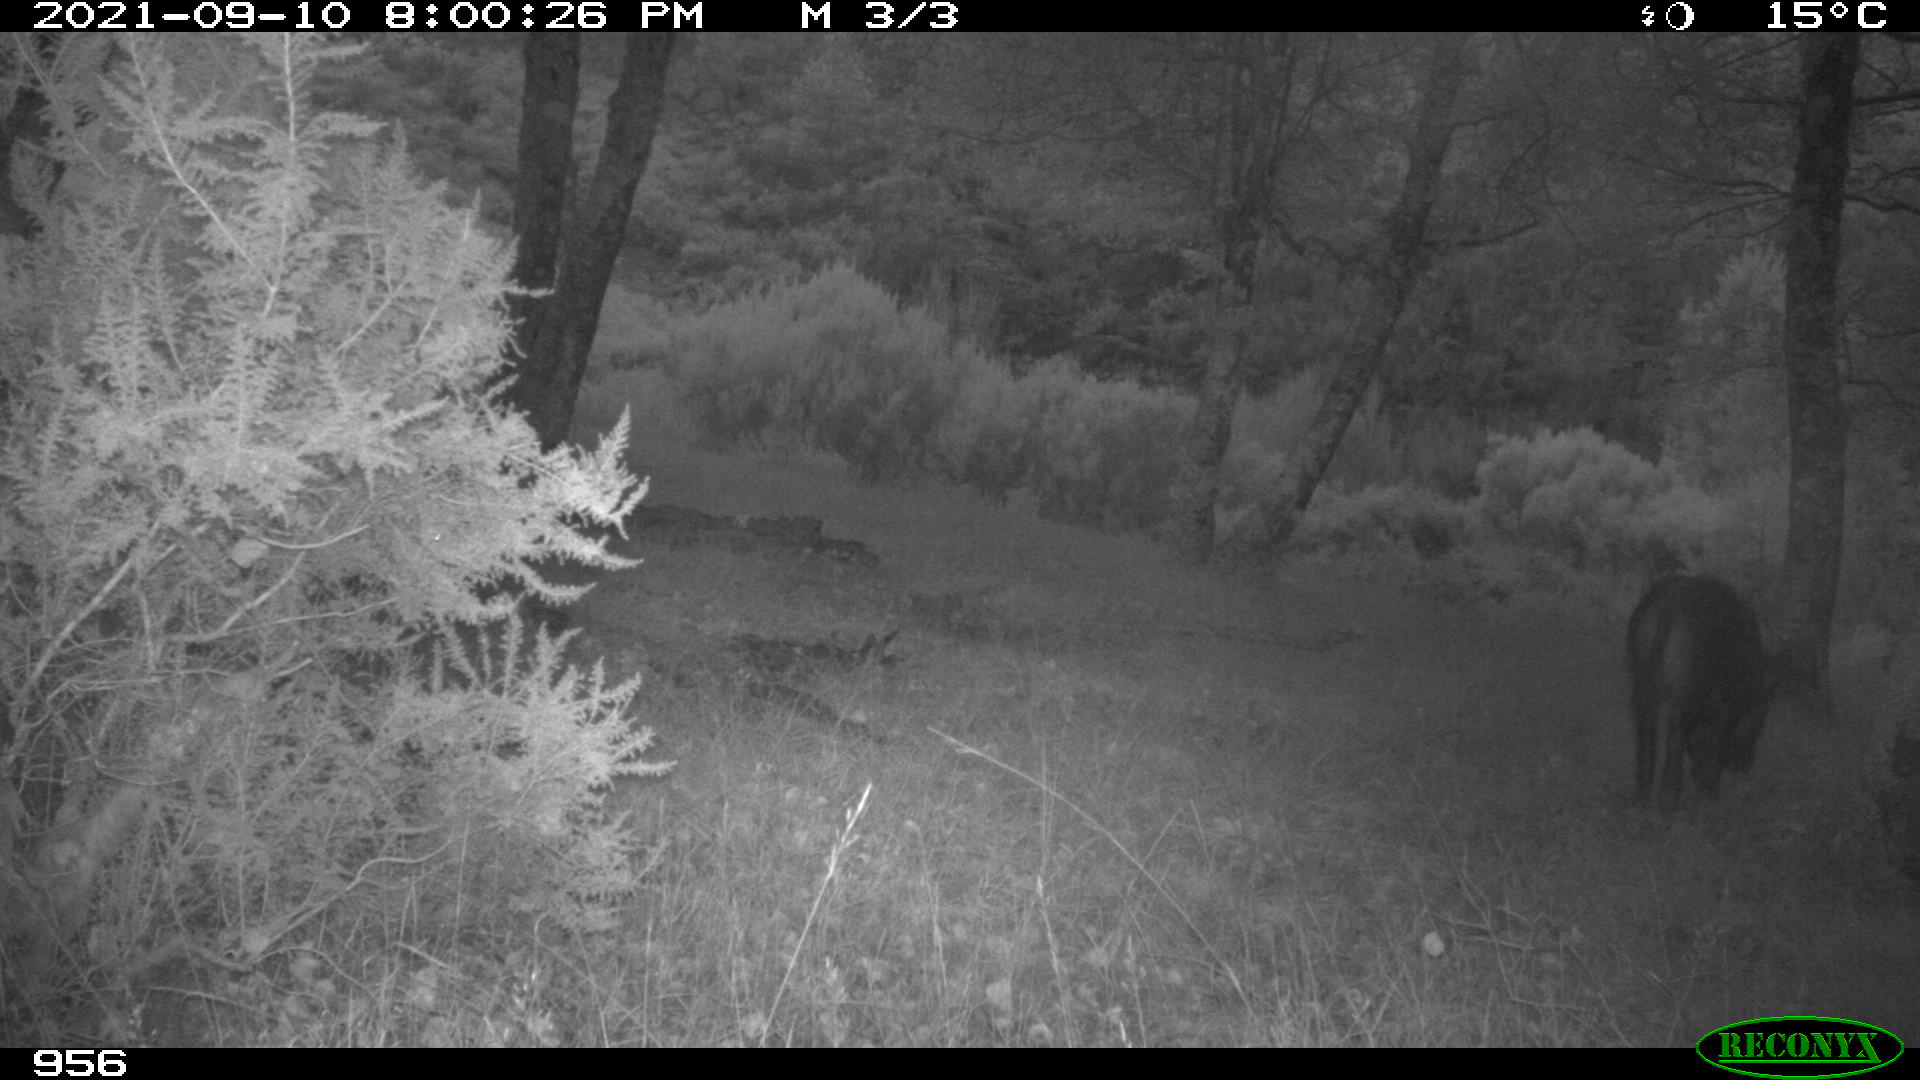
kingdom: Animalia
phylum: Chordata
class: Mammalia
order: Artiodactyla
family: Suidae
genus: Sus
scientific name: Sus scrofa
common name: Wild boar
